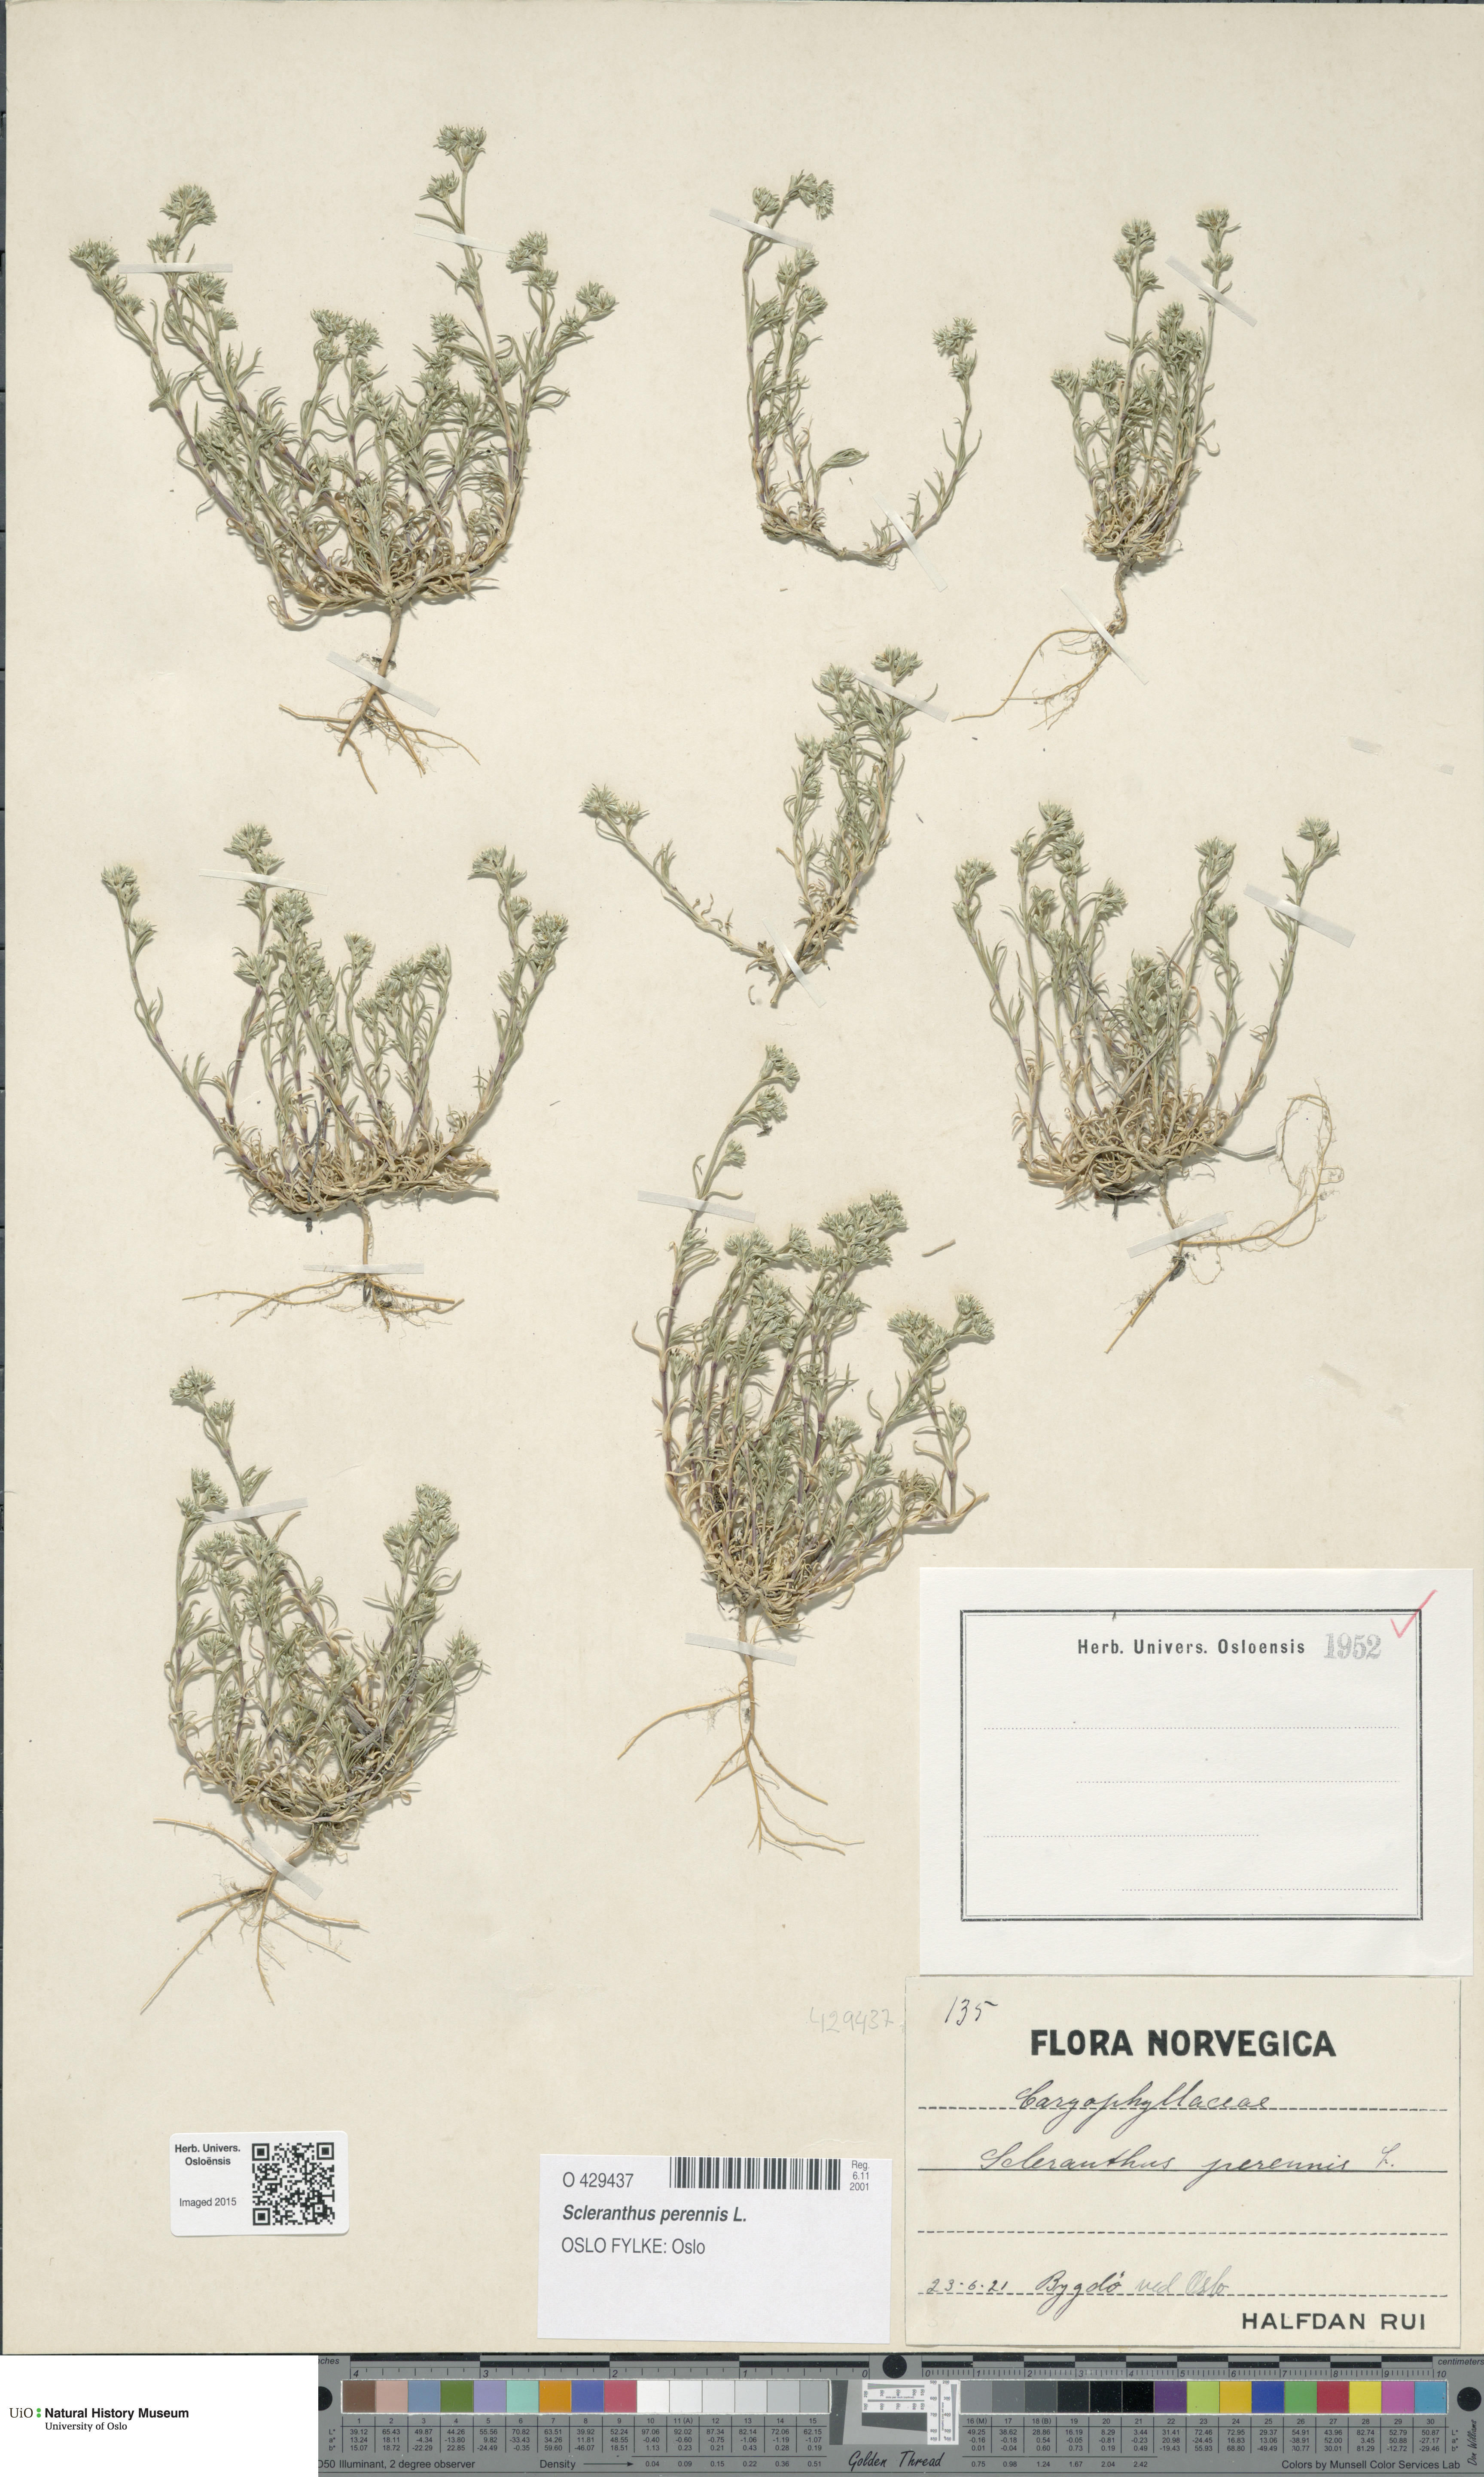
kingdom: Plantae
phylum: Tracheophyta
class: Magnoliopsida
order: Caryophyllales
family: Caryophyllaceae
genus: Scleranthus
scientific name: Scleranthus perennis
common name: Perennial knawel
